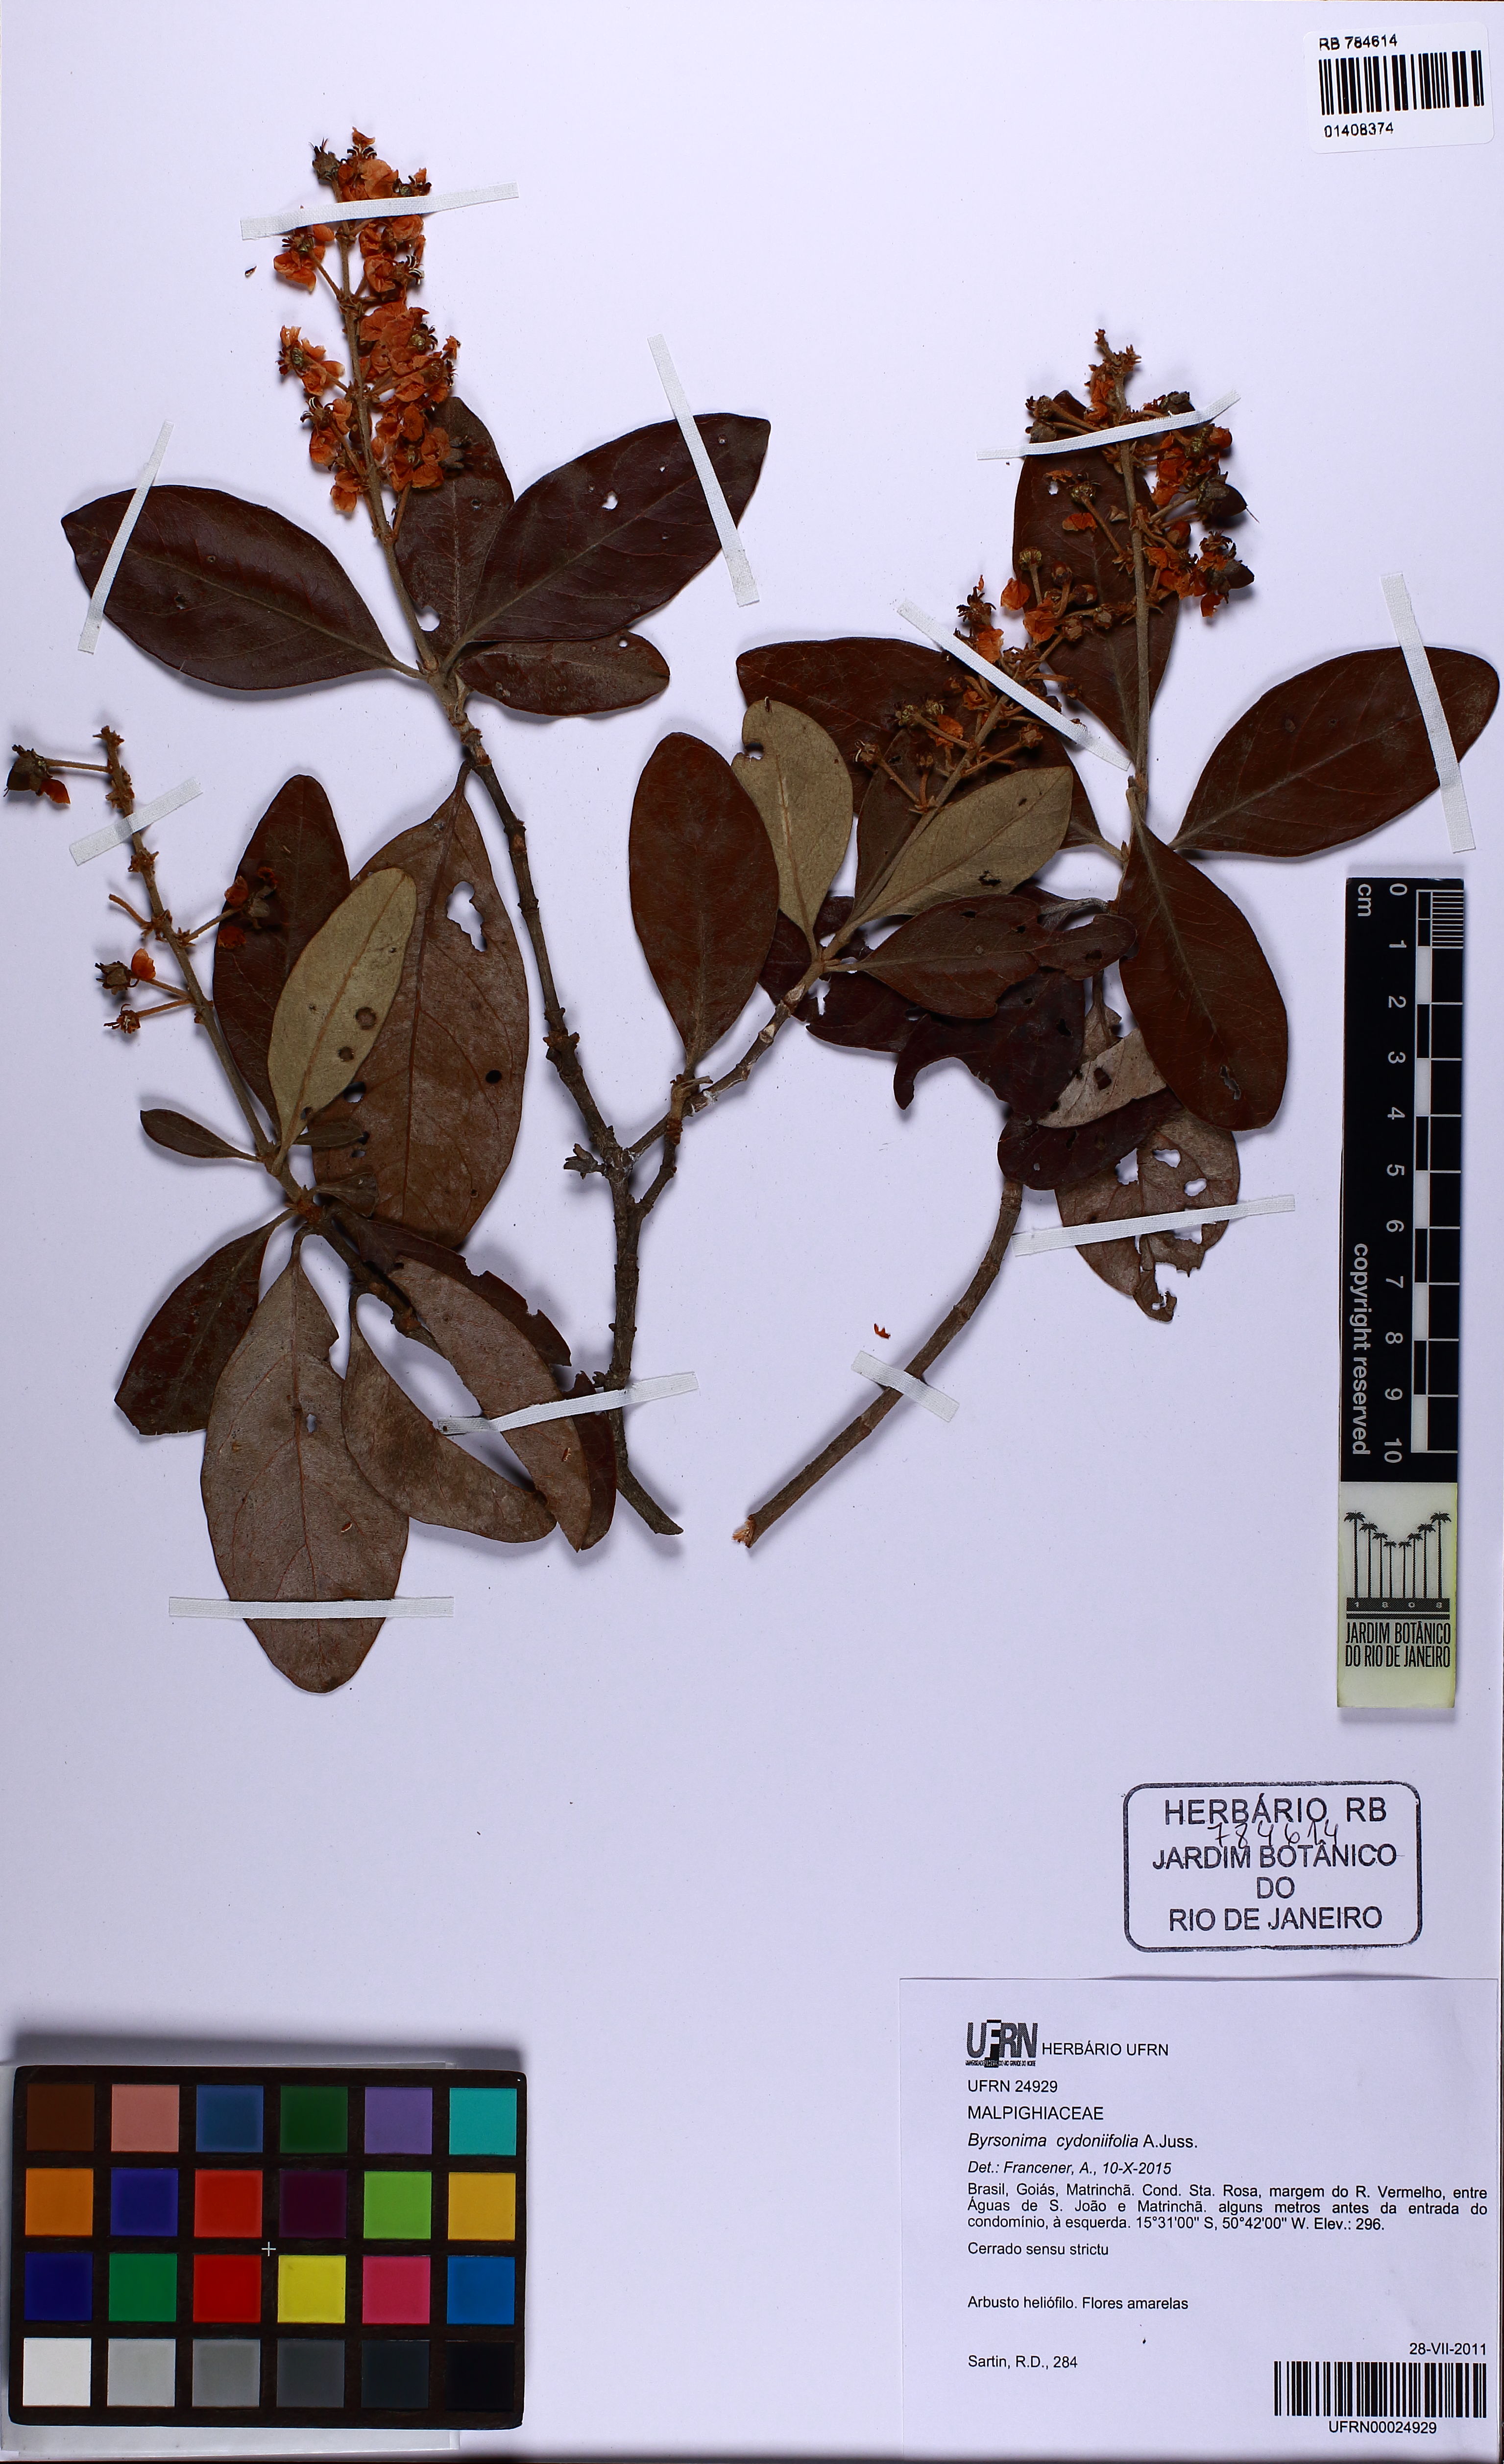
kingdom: Plantae
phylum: Tracheophyta
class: Magnoliopsida
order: Malpighiales
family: Malpighiaceae
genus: Byrsonima
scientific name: Byrsonima cydoniifolia
